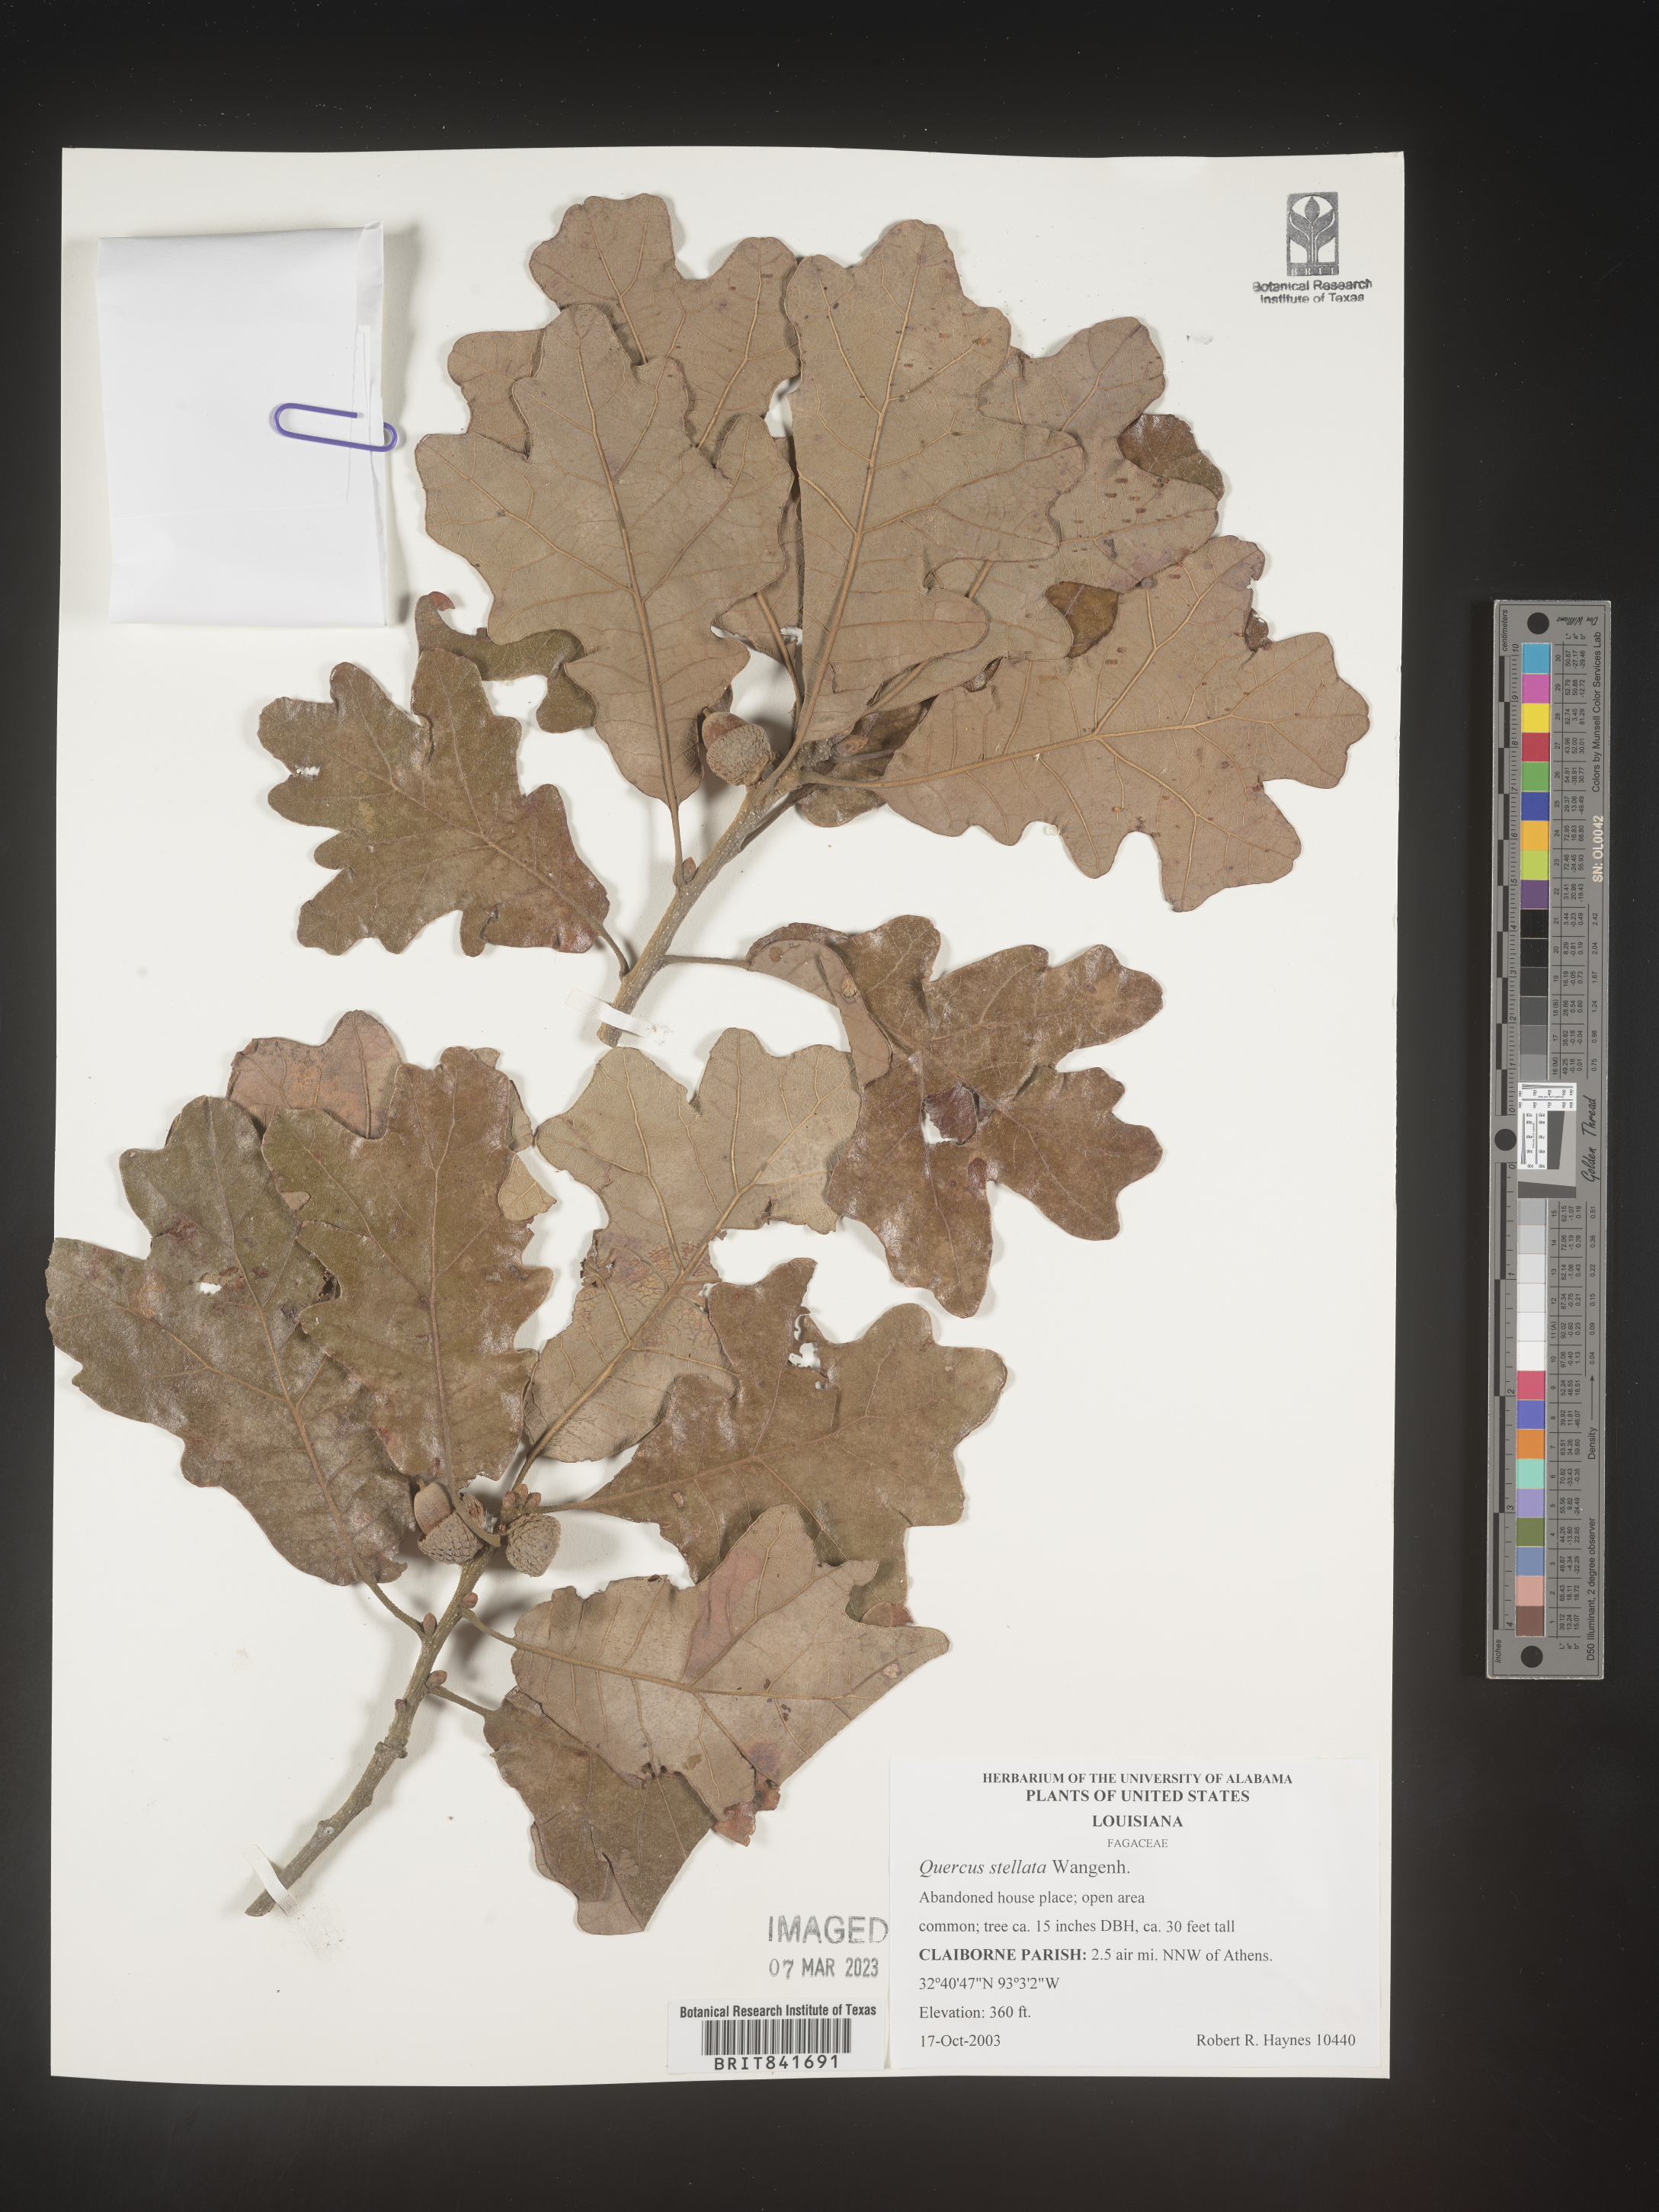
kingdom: Plantae
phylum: Tracheophyta
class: Magnoliopsida
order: Fagales
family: Fagaceae
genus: Quercus
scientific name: Quercus stellata
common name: Post oak
